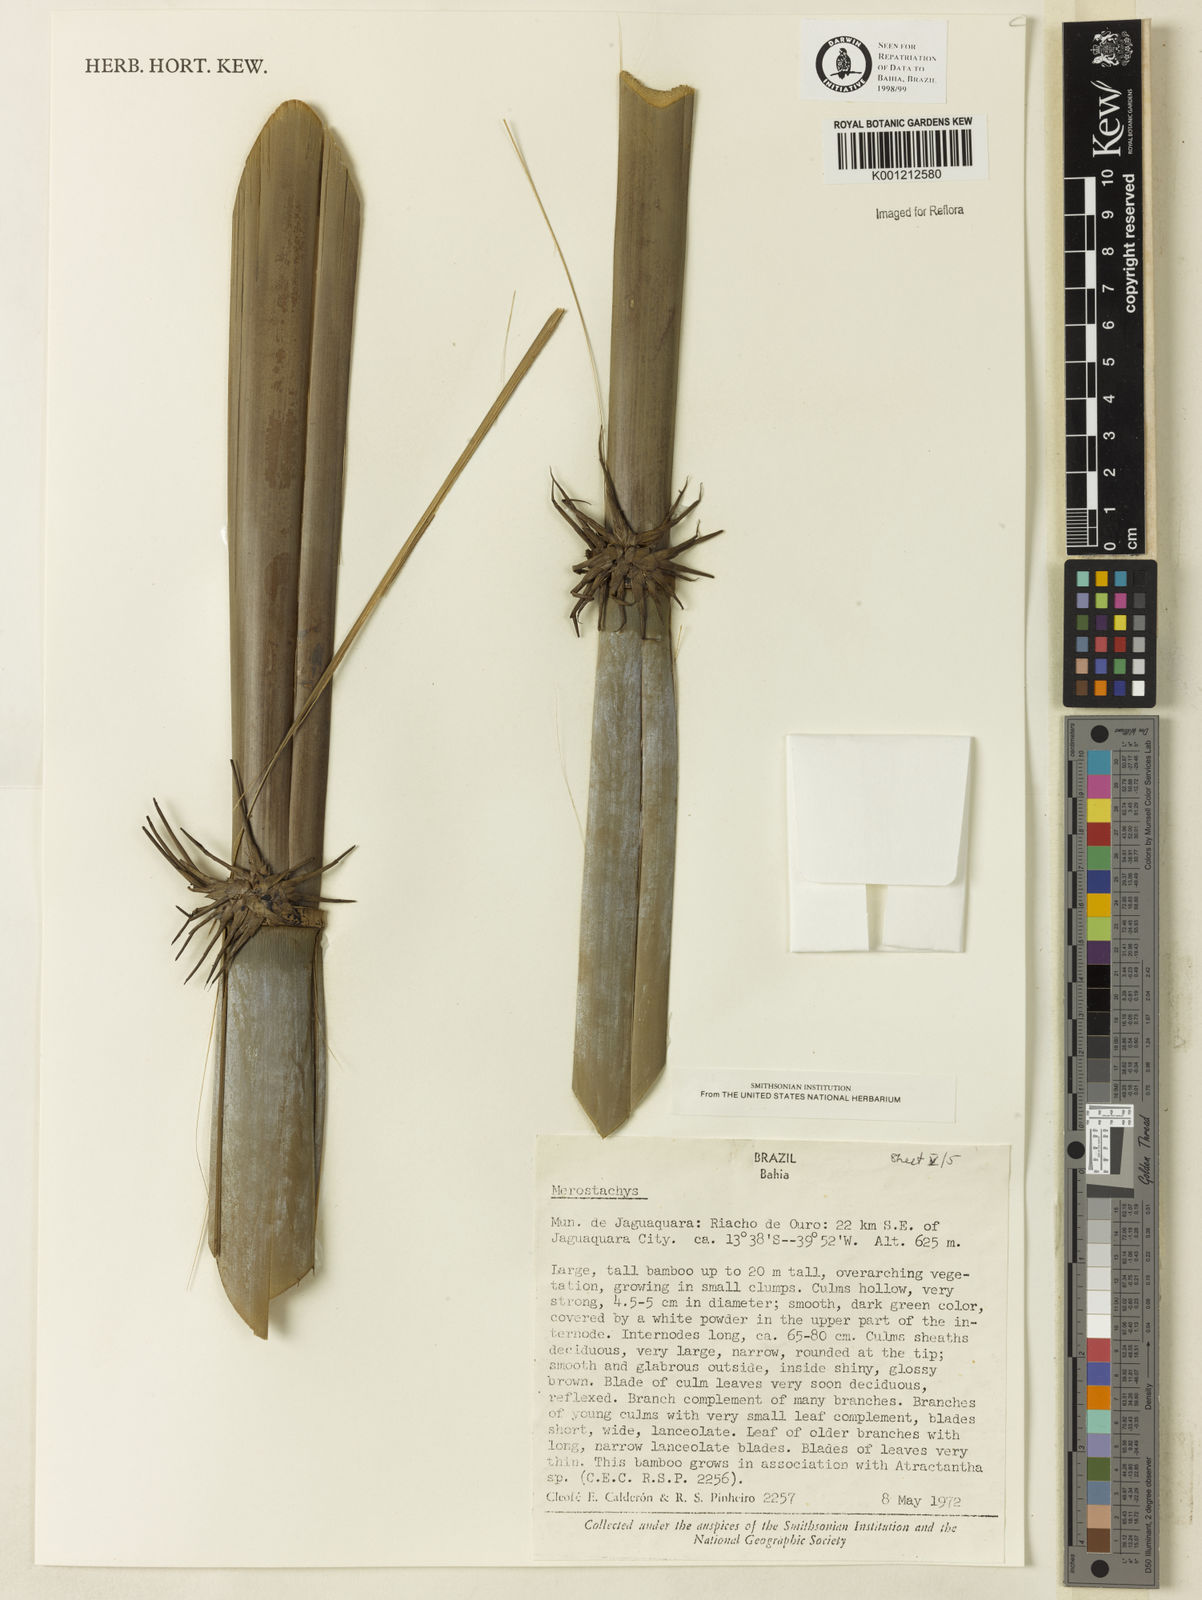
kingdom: Plantae
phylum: Tracheophyta
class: Liliopsida
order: Poales
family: Poaceae
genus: Merostachys
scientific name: Merostachys
